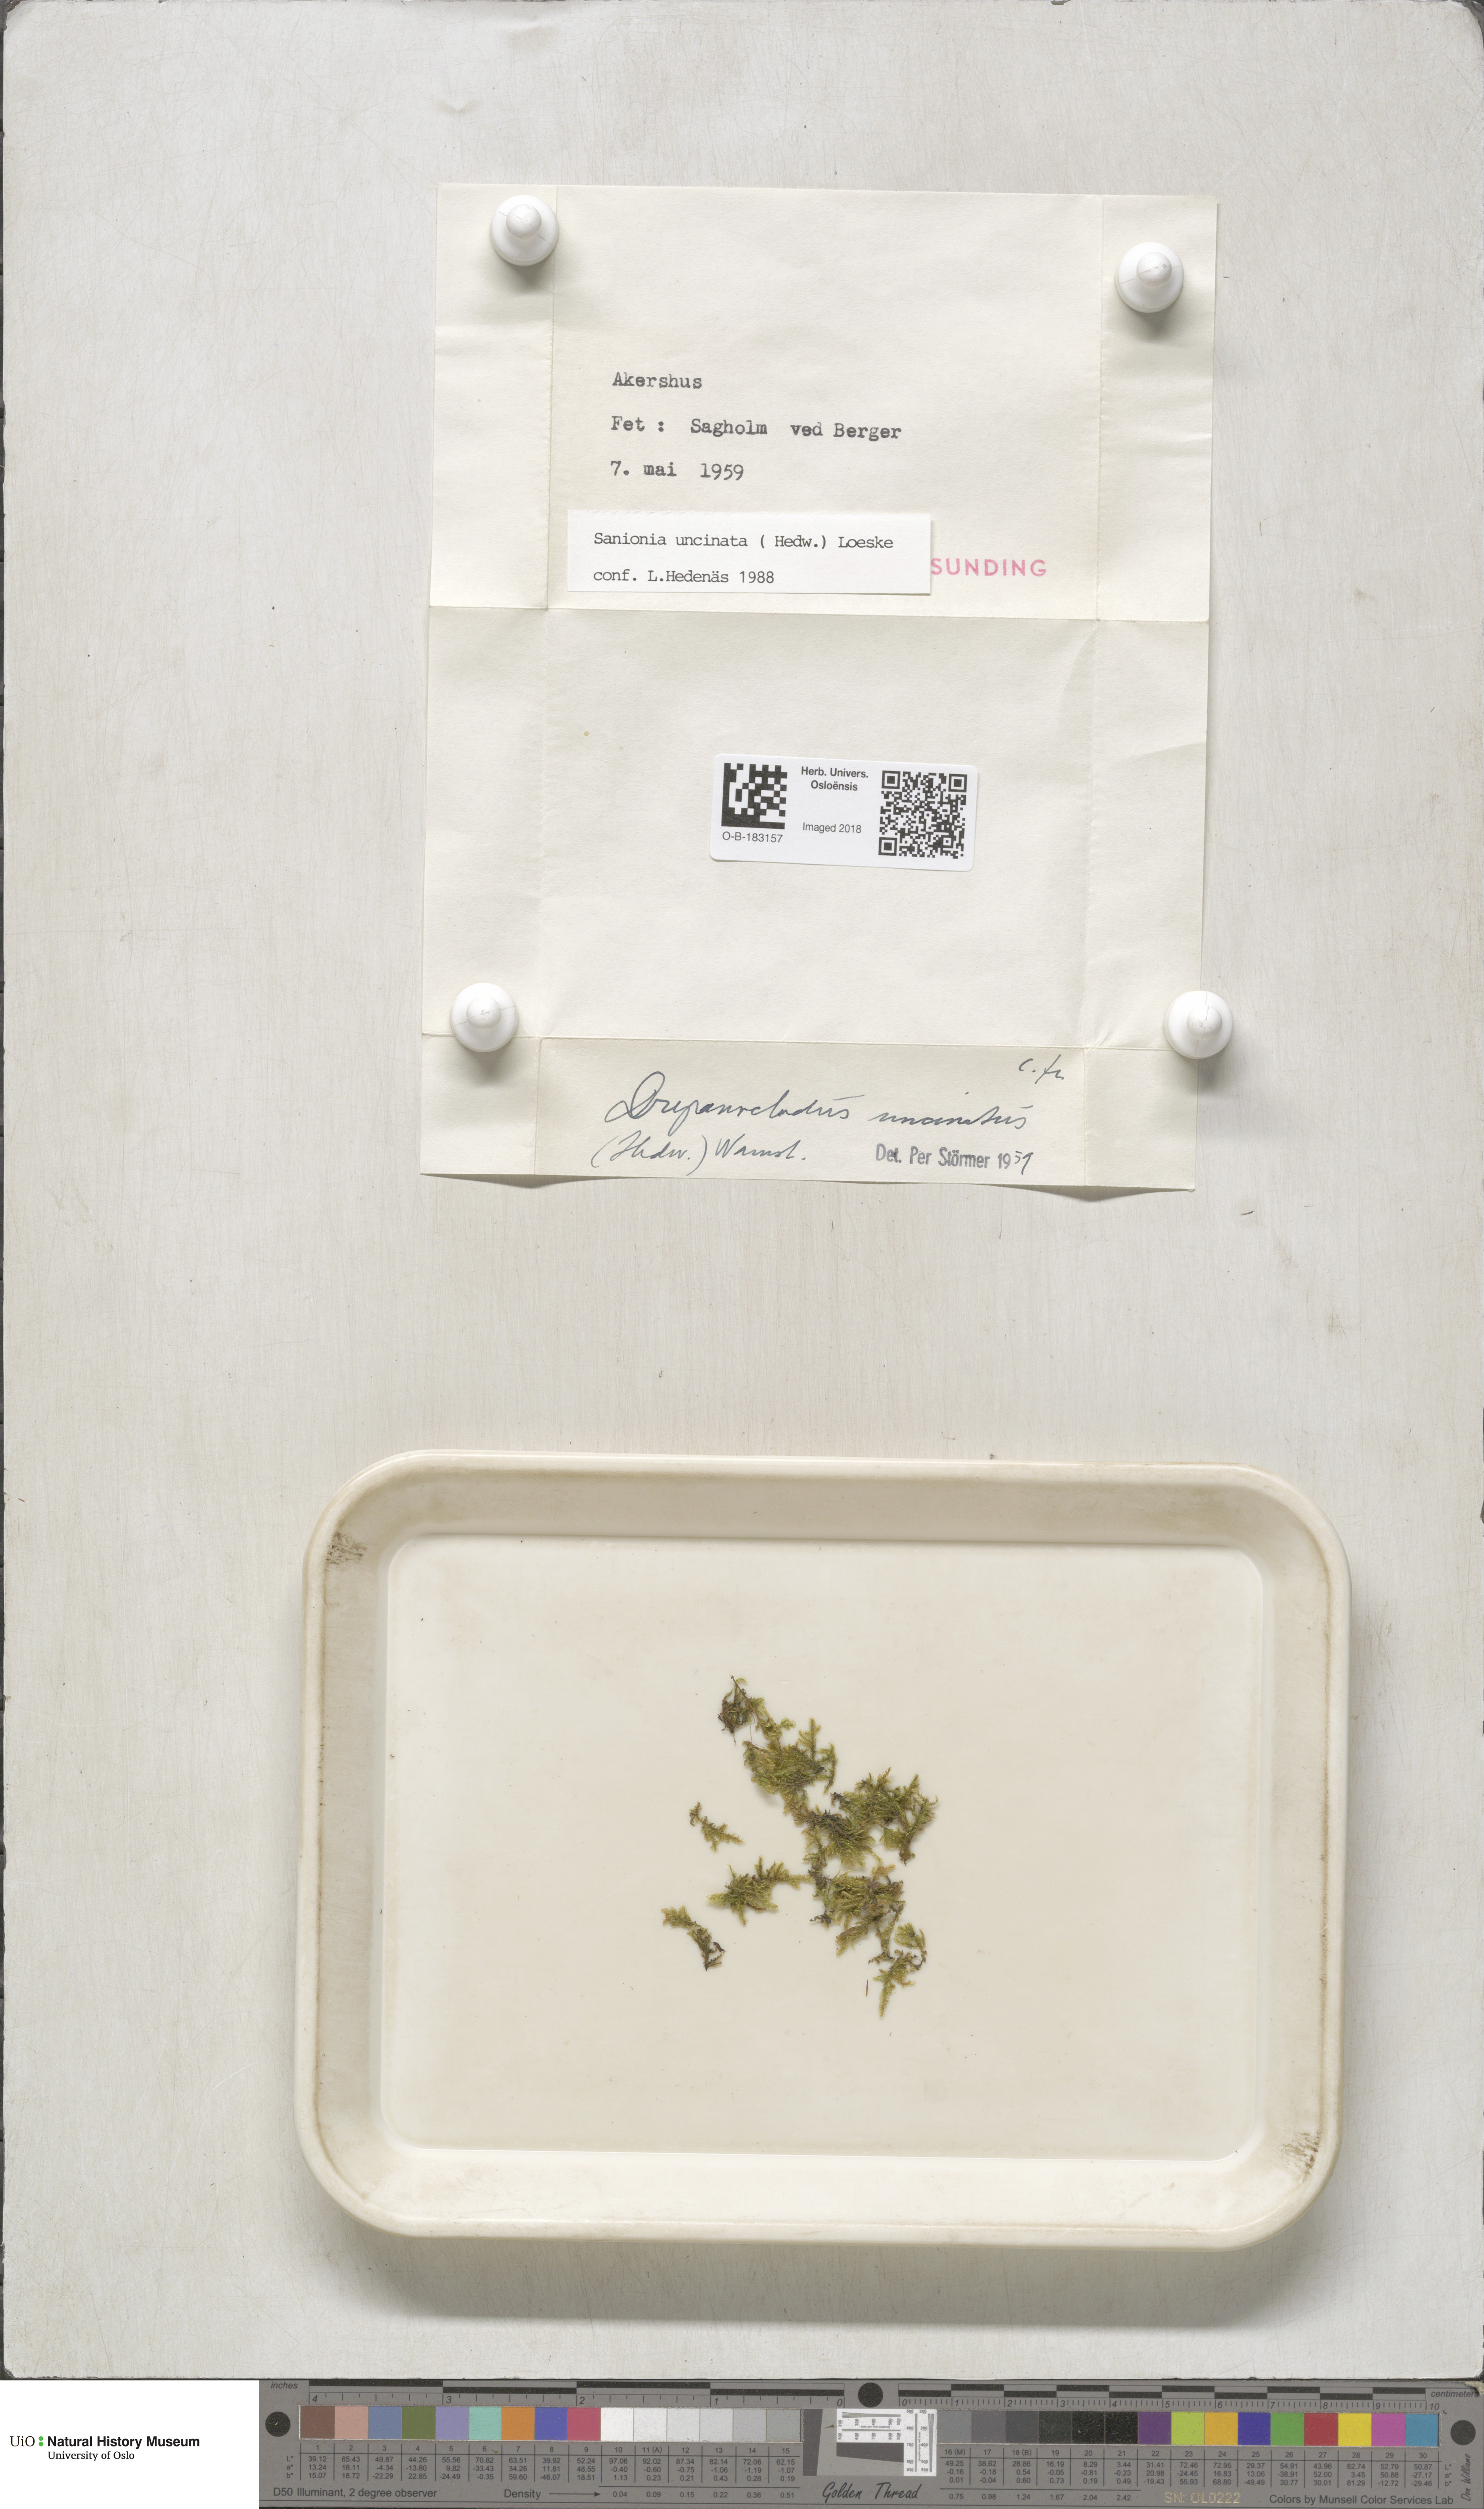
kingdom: Plantae
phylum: Bryophyta
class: Bryopsida
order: Hypnales
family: Scorpidiaceae
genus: Sanionia
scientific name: Sanionia uncinata
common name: Sickle moss
